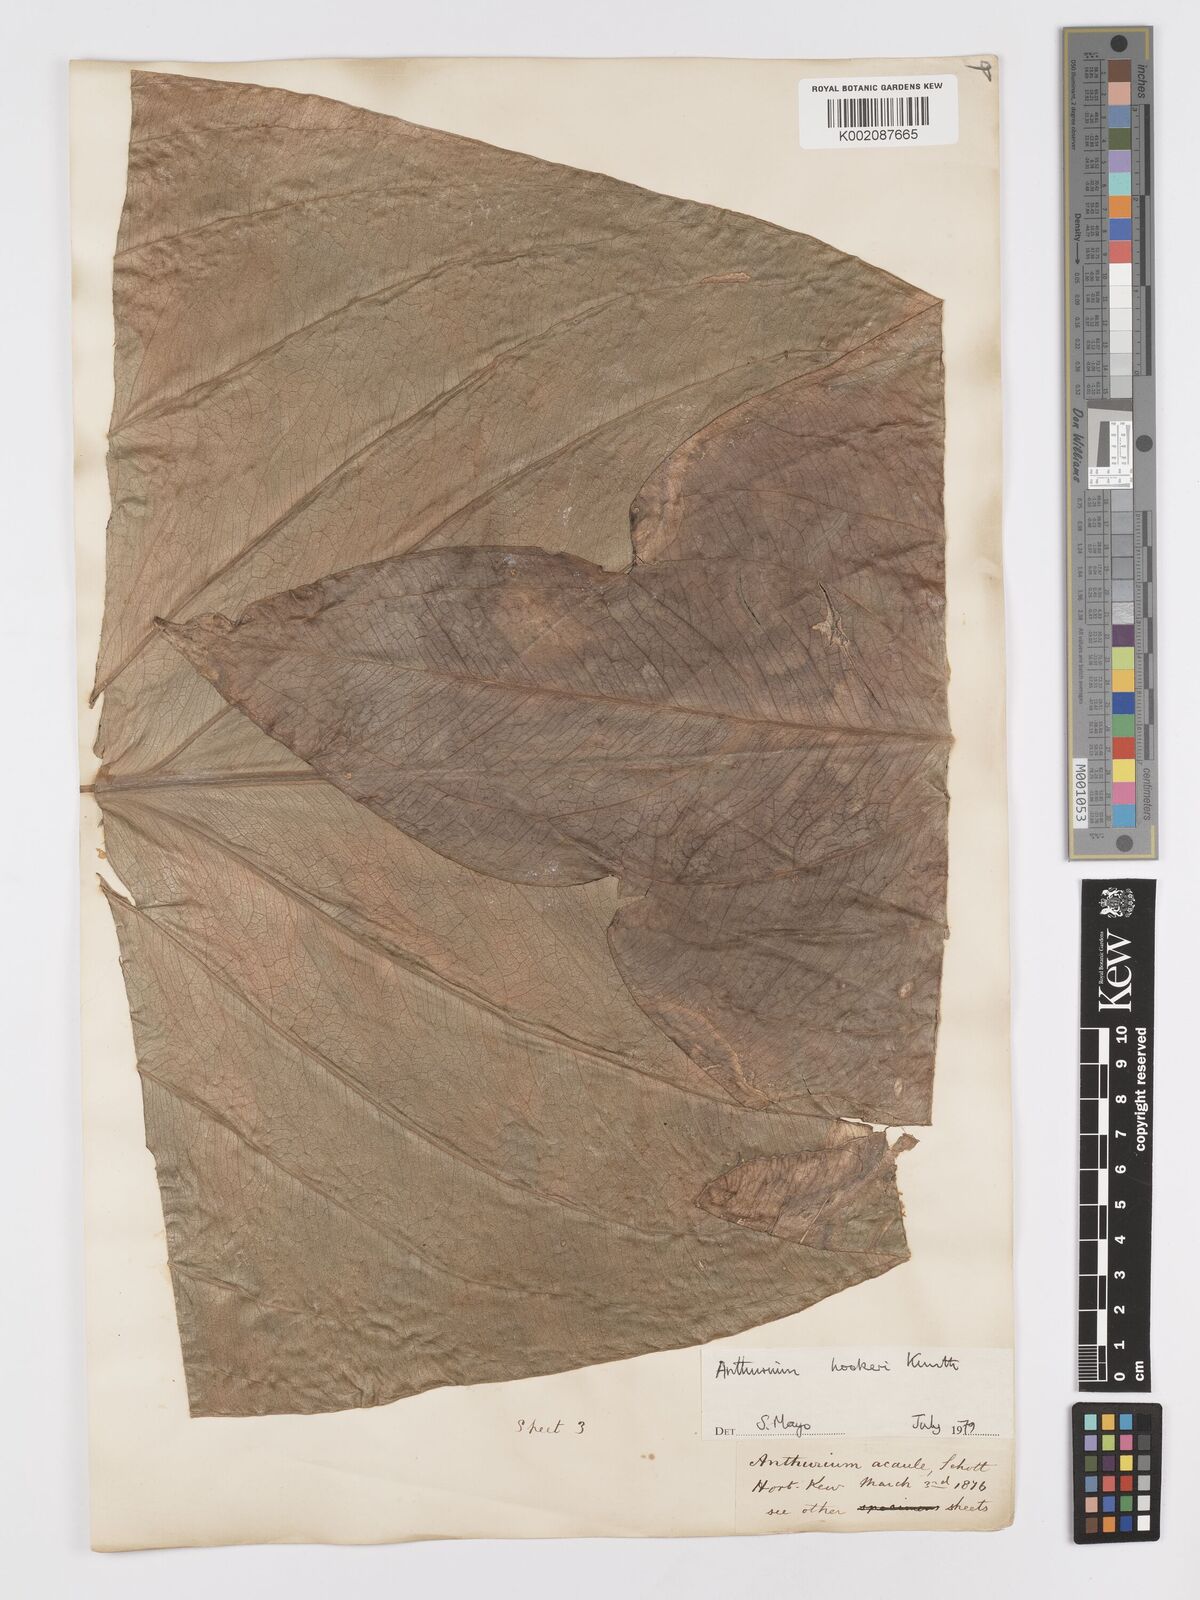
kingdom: Plantae
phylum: Tracheophyta
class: Liliopsida
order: Alismatales
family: Araceae
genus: Anthurium
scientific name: Anthurium hookeri
